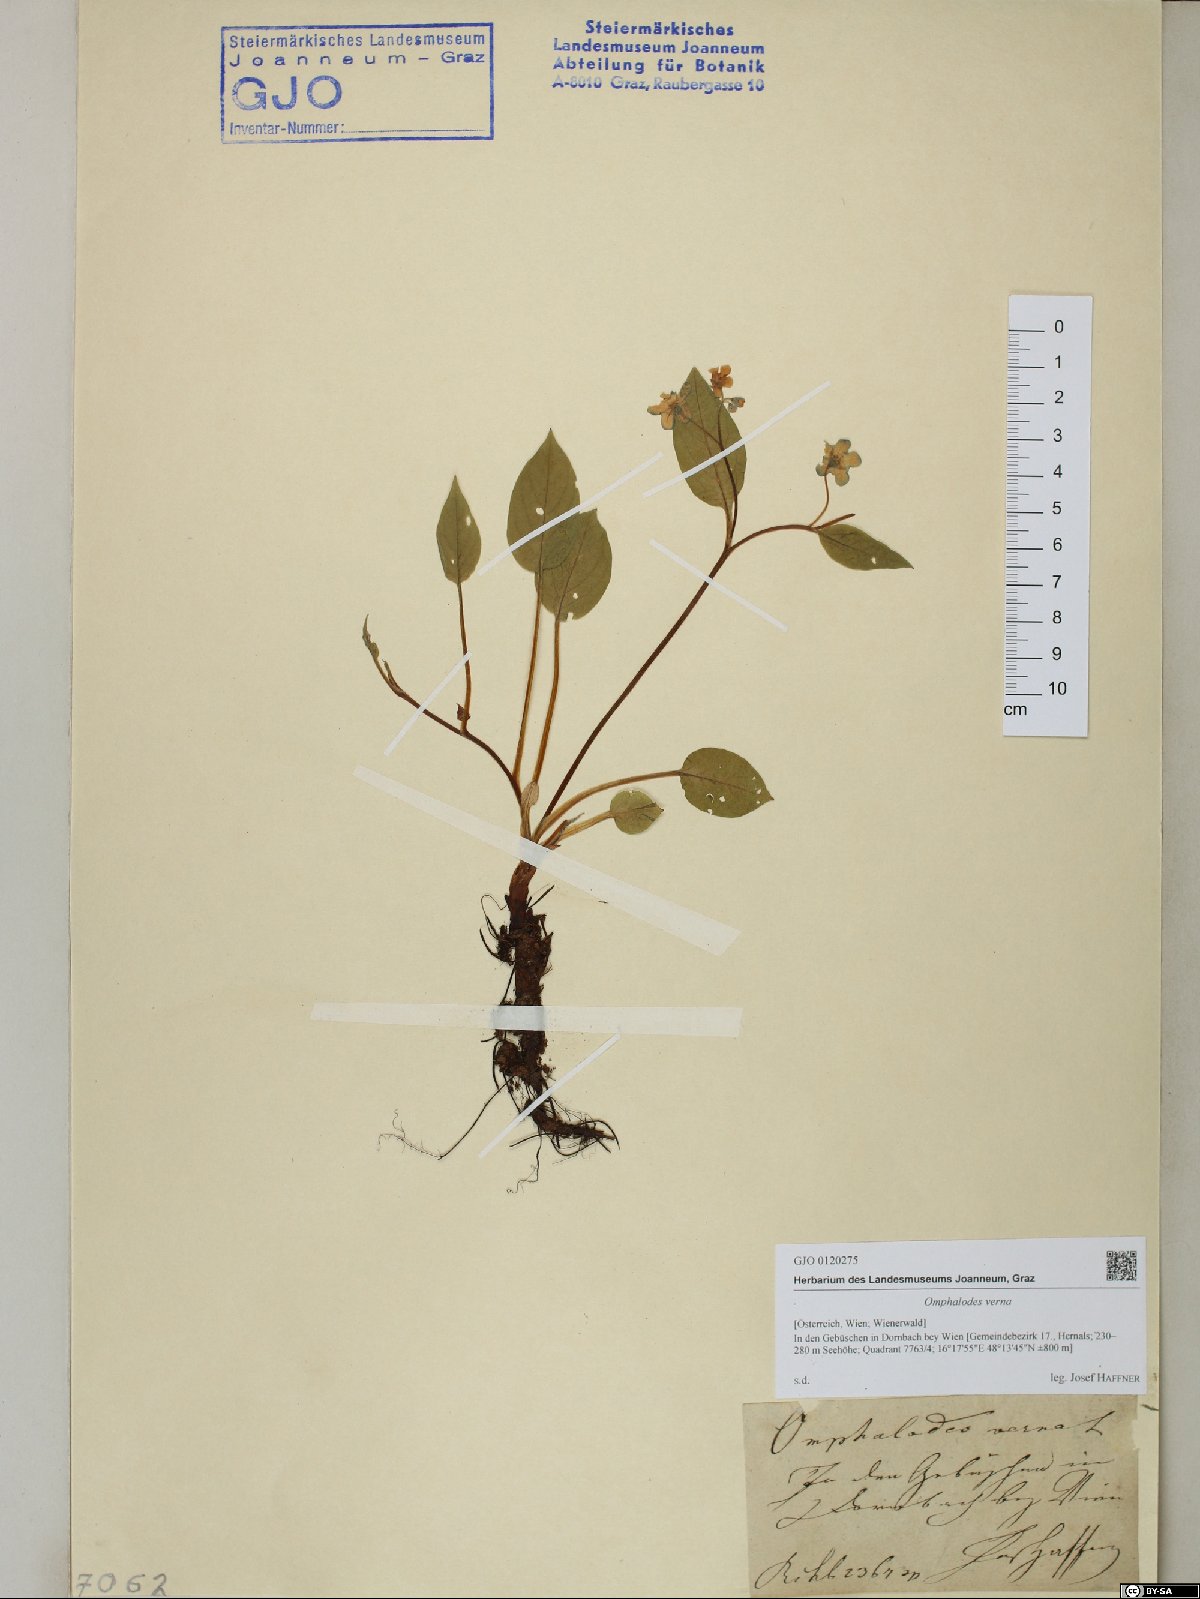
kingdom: Plantae
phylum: Tracheophyta
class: Magnoliopsida
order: Boraginales
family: Boraginaceae
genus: Omphalodes
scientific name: Omphalodes verna
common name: Blue-eyed-mary
